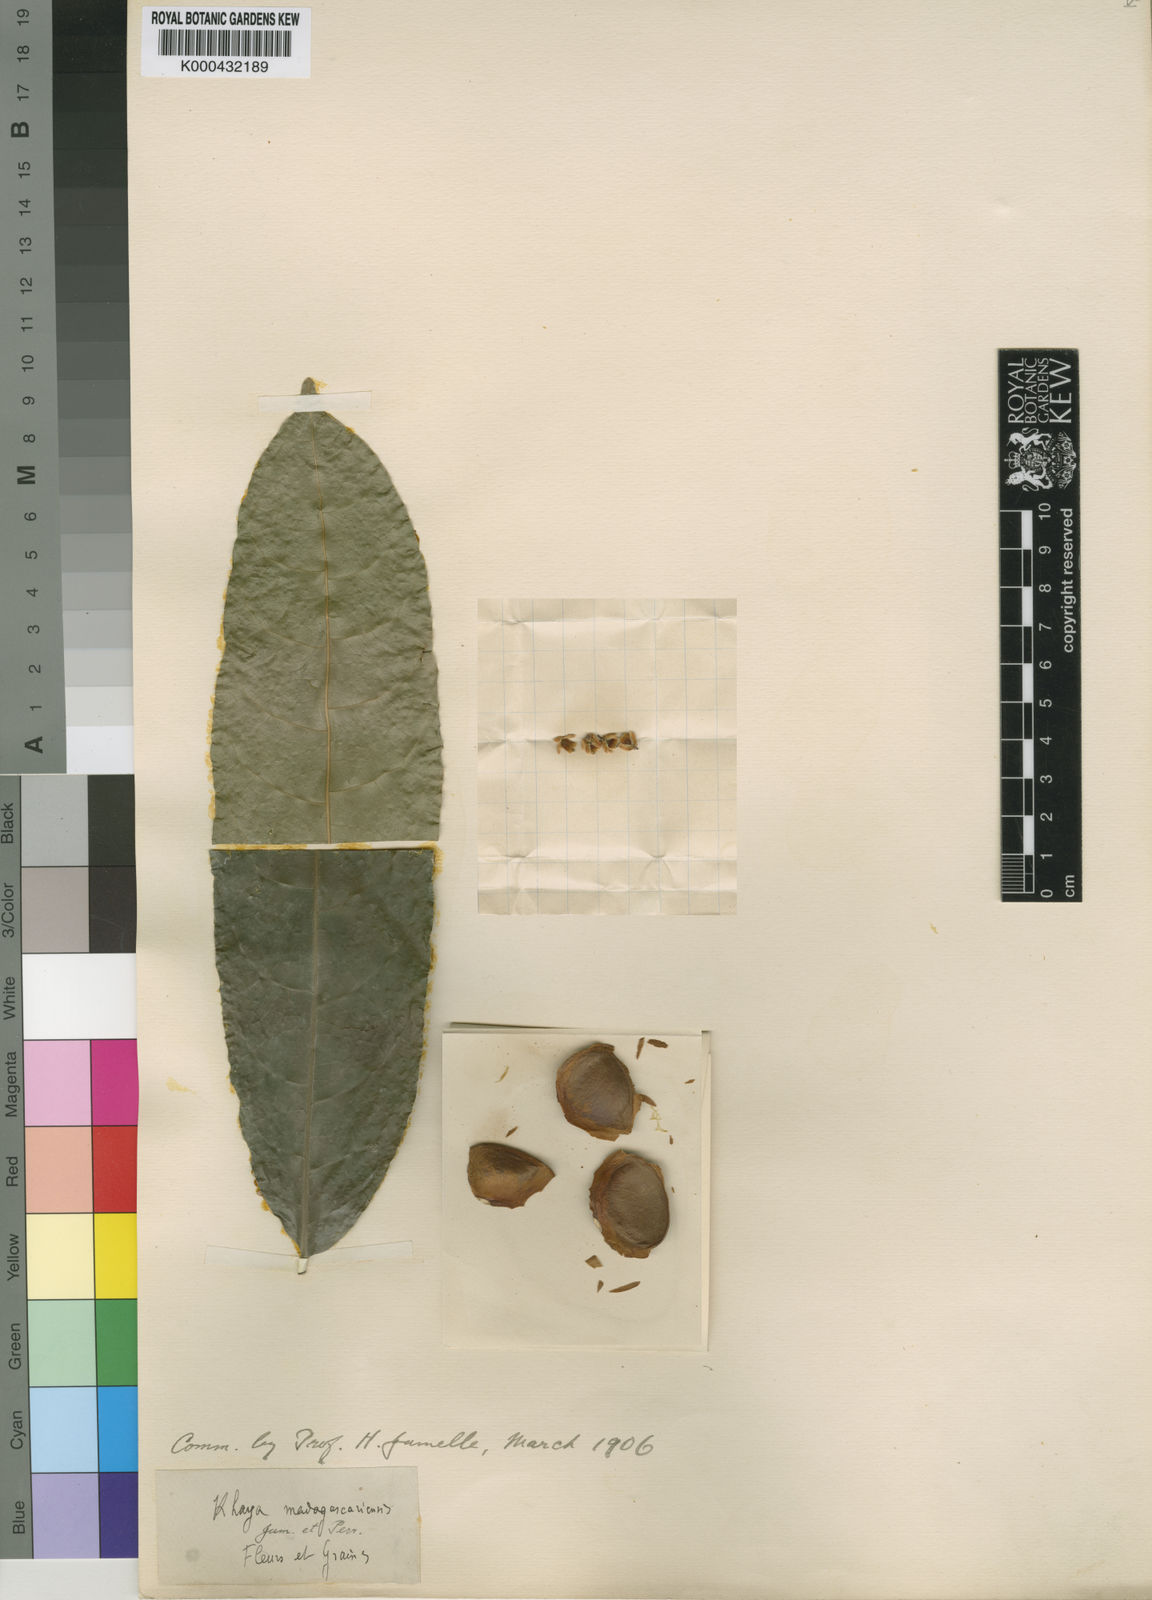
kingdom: Plantae
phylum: Tracheophyta
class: Magnoliopsida
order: Sapindales
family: Meliaceae
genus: Khaya
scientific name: Khaya madagascariensis
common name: Madagascar-mahogany
